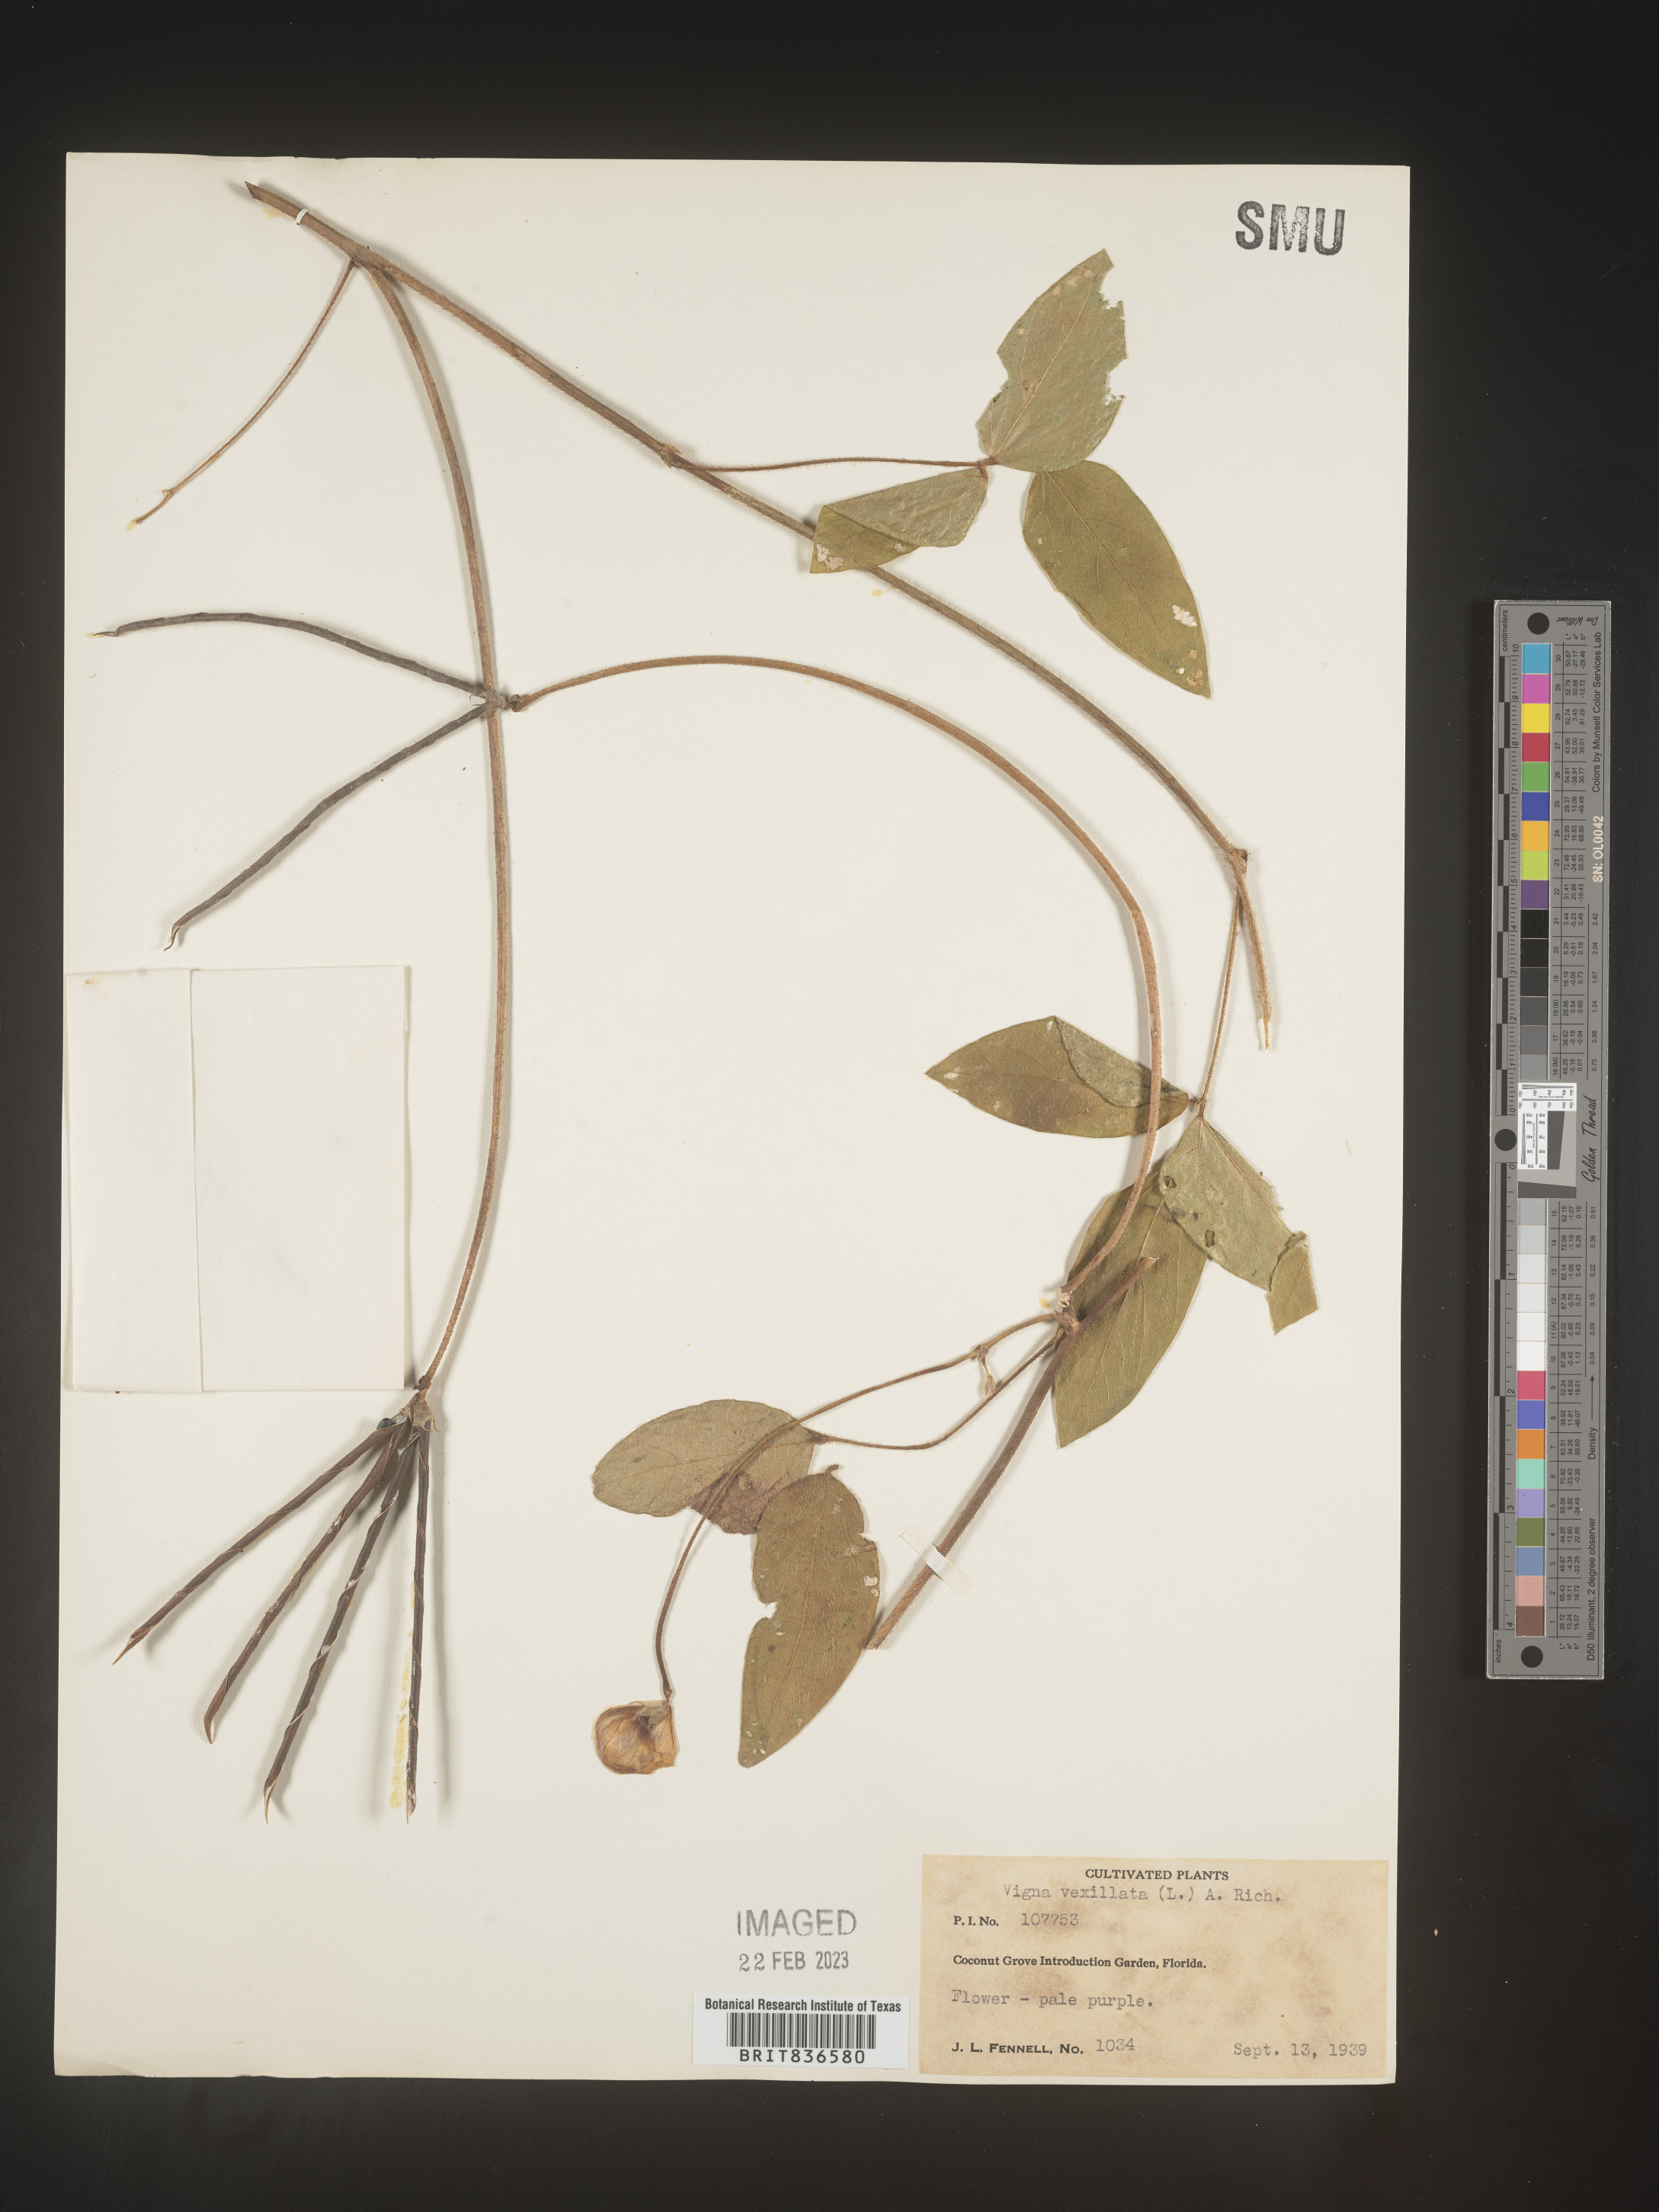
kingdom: Plantae
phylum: Tracheophyta
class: Magnoliopsida
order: Fabales
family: Fabaceae
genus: Vigna
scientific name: Vigna
